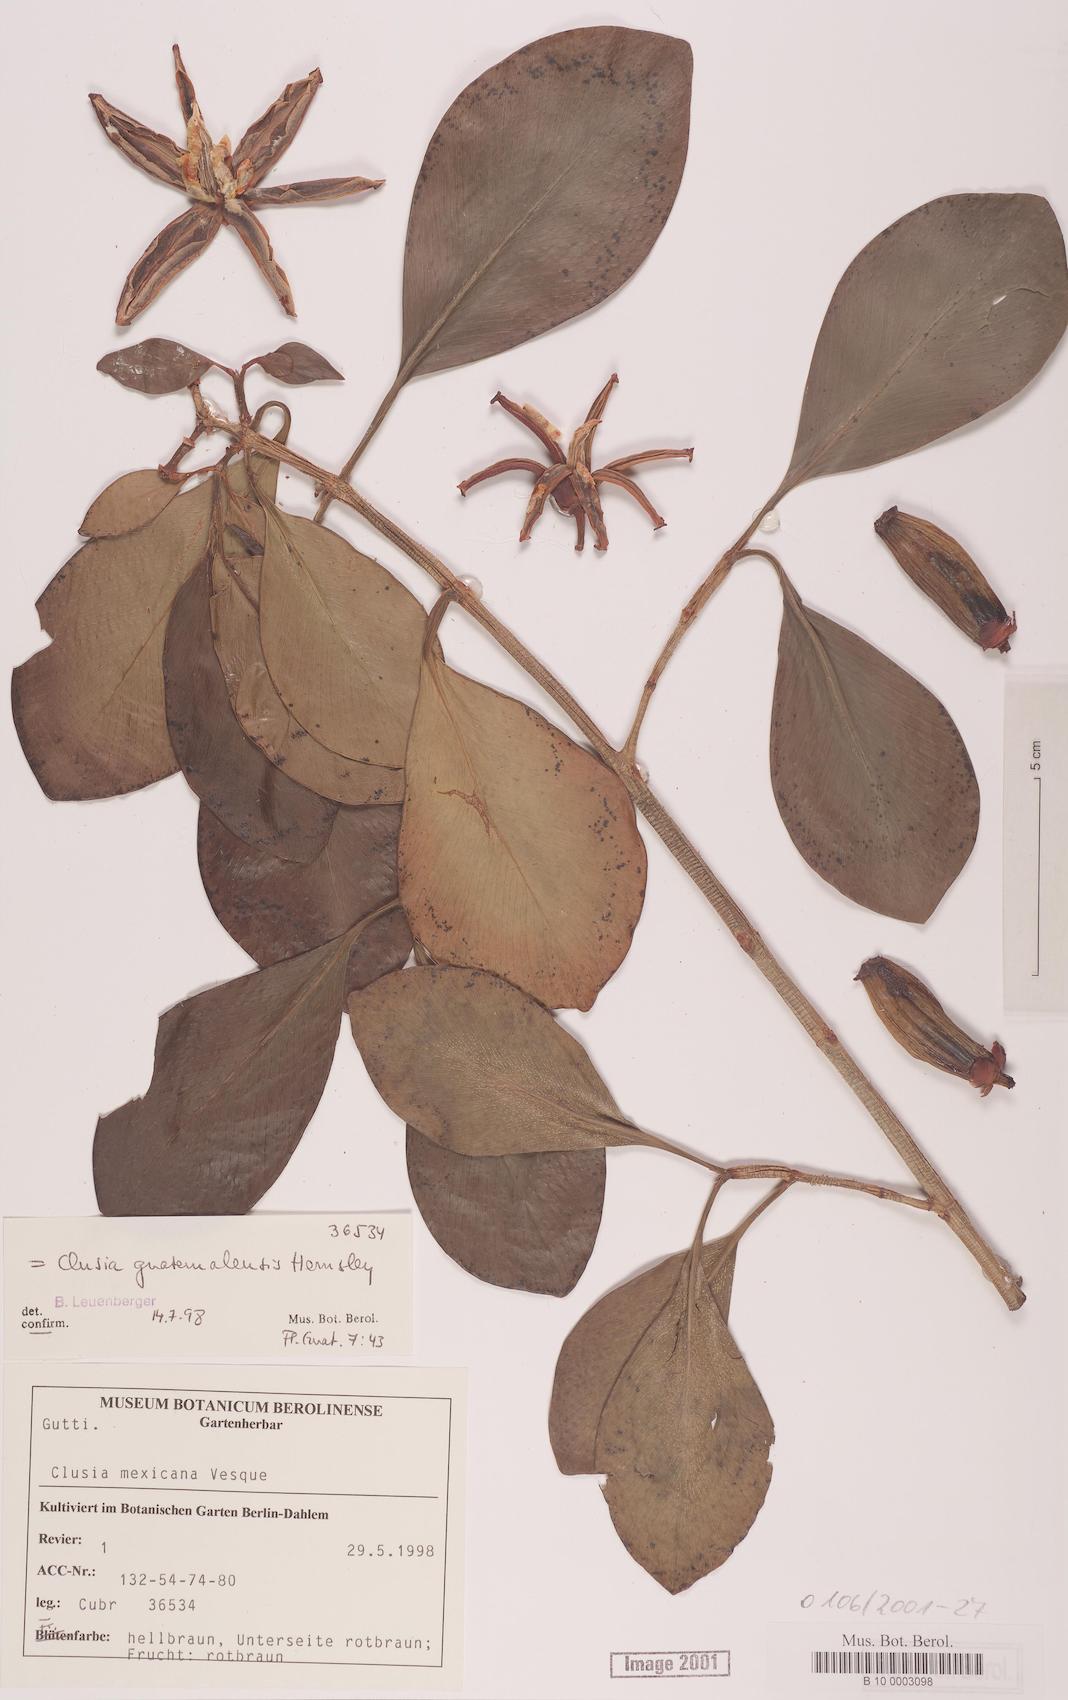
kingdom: Plantae
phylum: Tracheophyta
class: Magnoliopsida
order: Malpighiales
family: Clusiaceae
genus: Chrysochlamys
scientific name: Chrysochlamys
